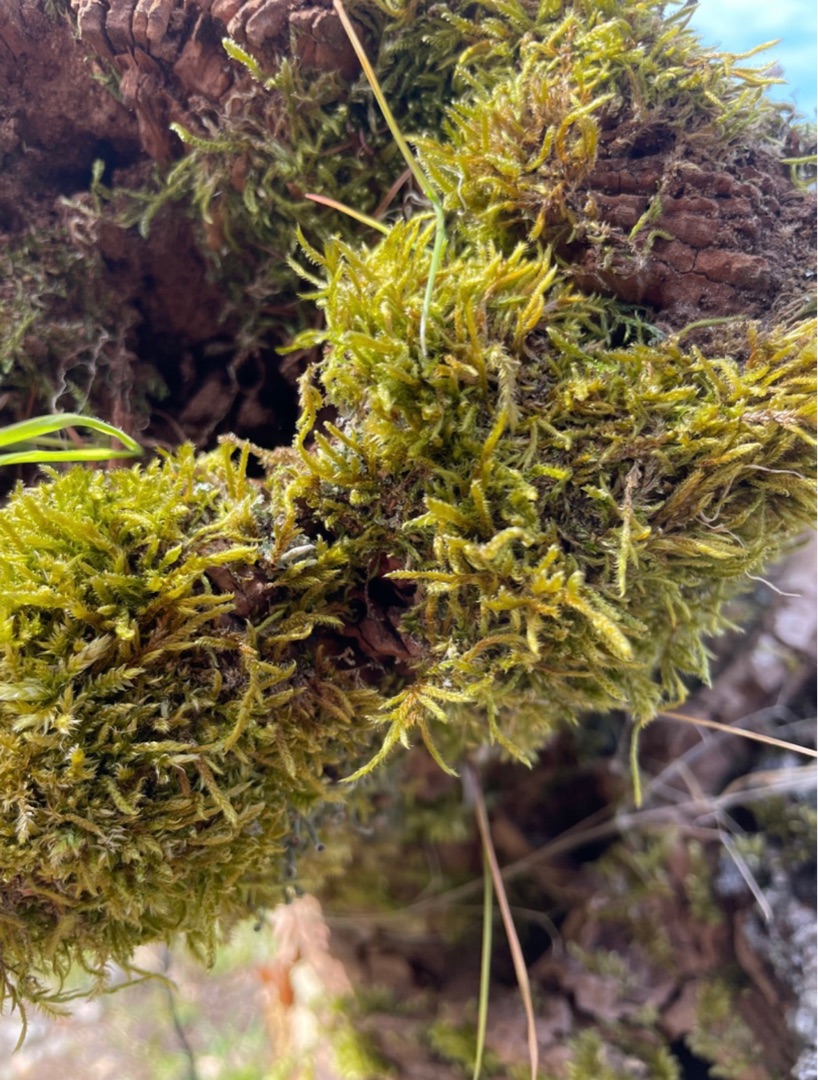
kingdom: Plantae
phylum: Bryophyta
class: Bryopsida
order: Hypnales
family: Hypnaceae
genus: Hypnum
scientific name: Hypnum cupressiforme
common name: Almindelig cypresmos
